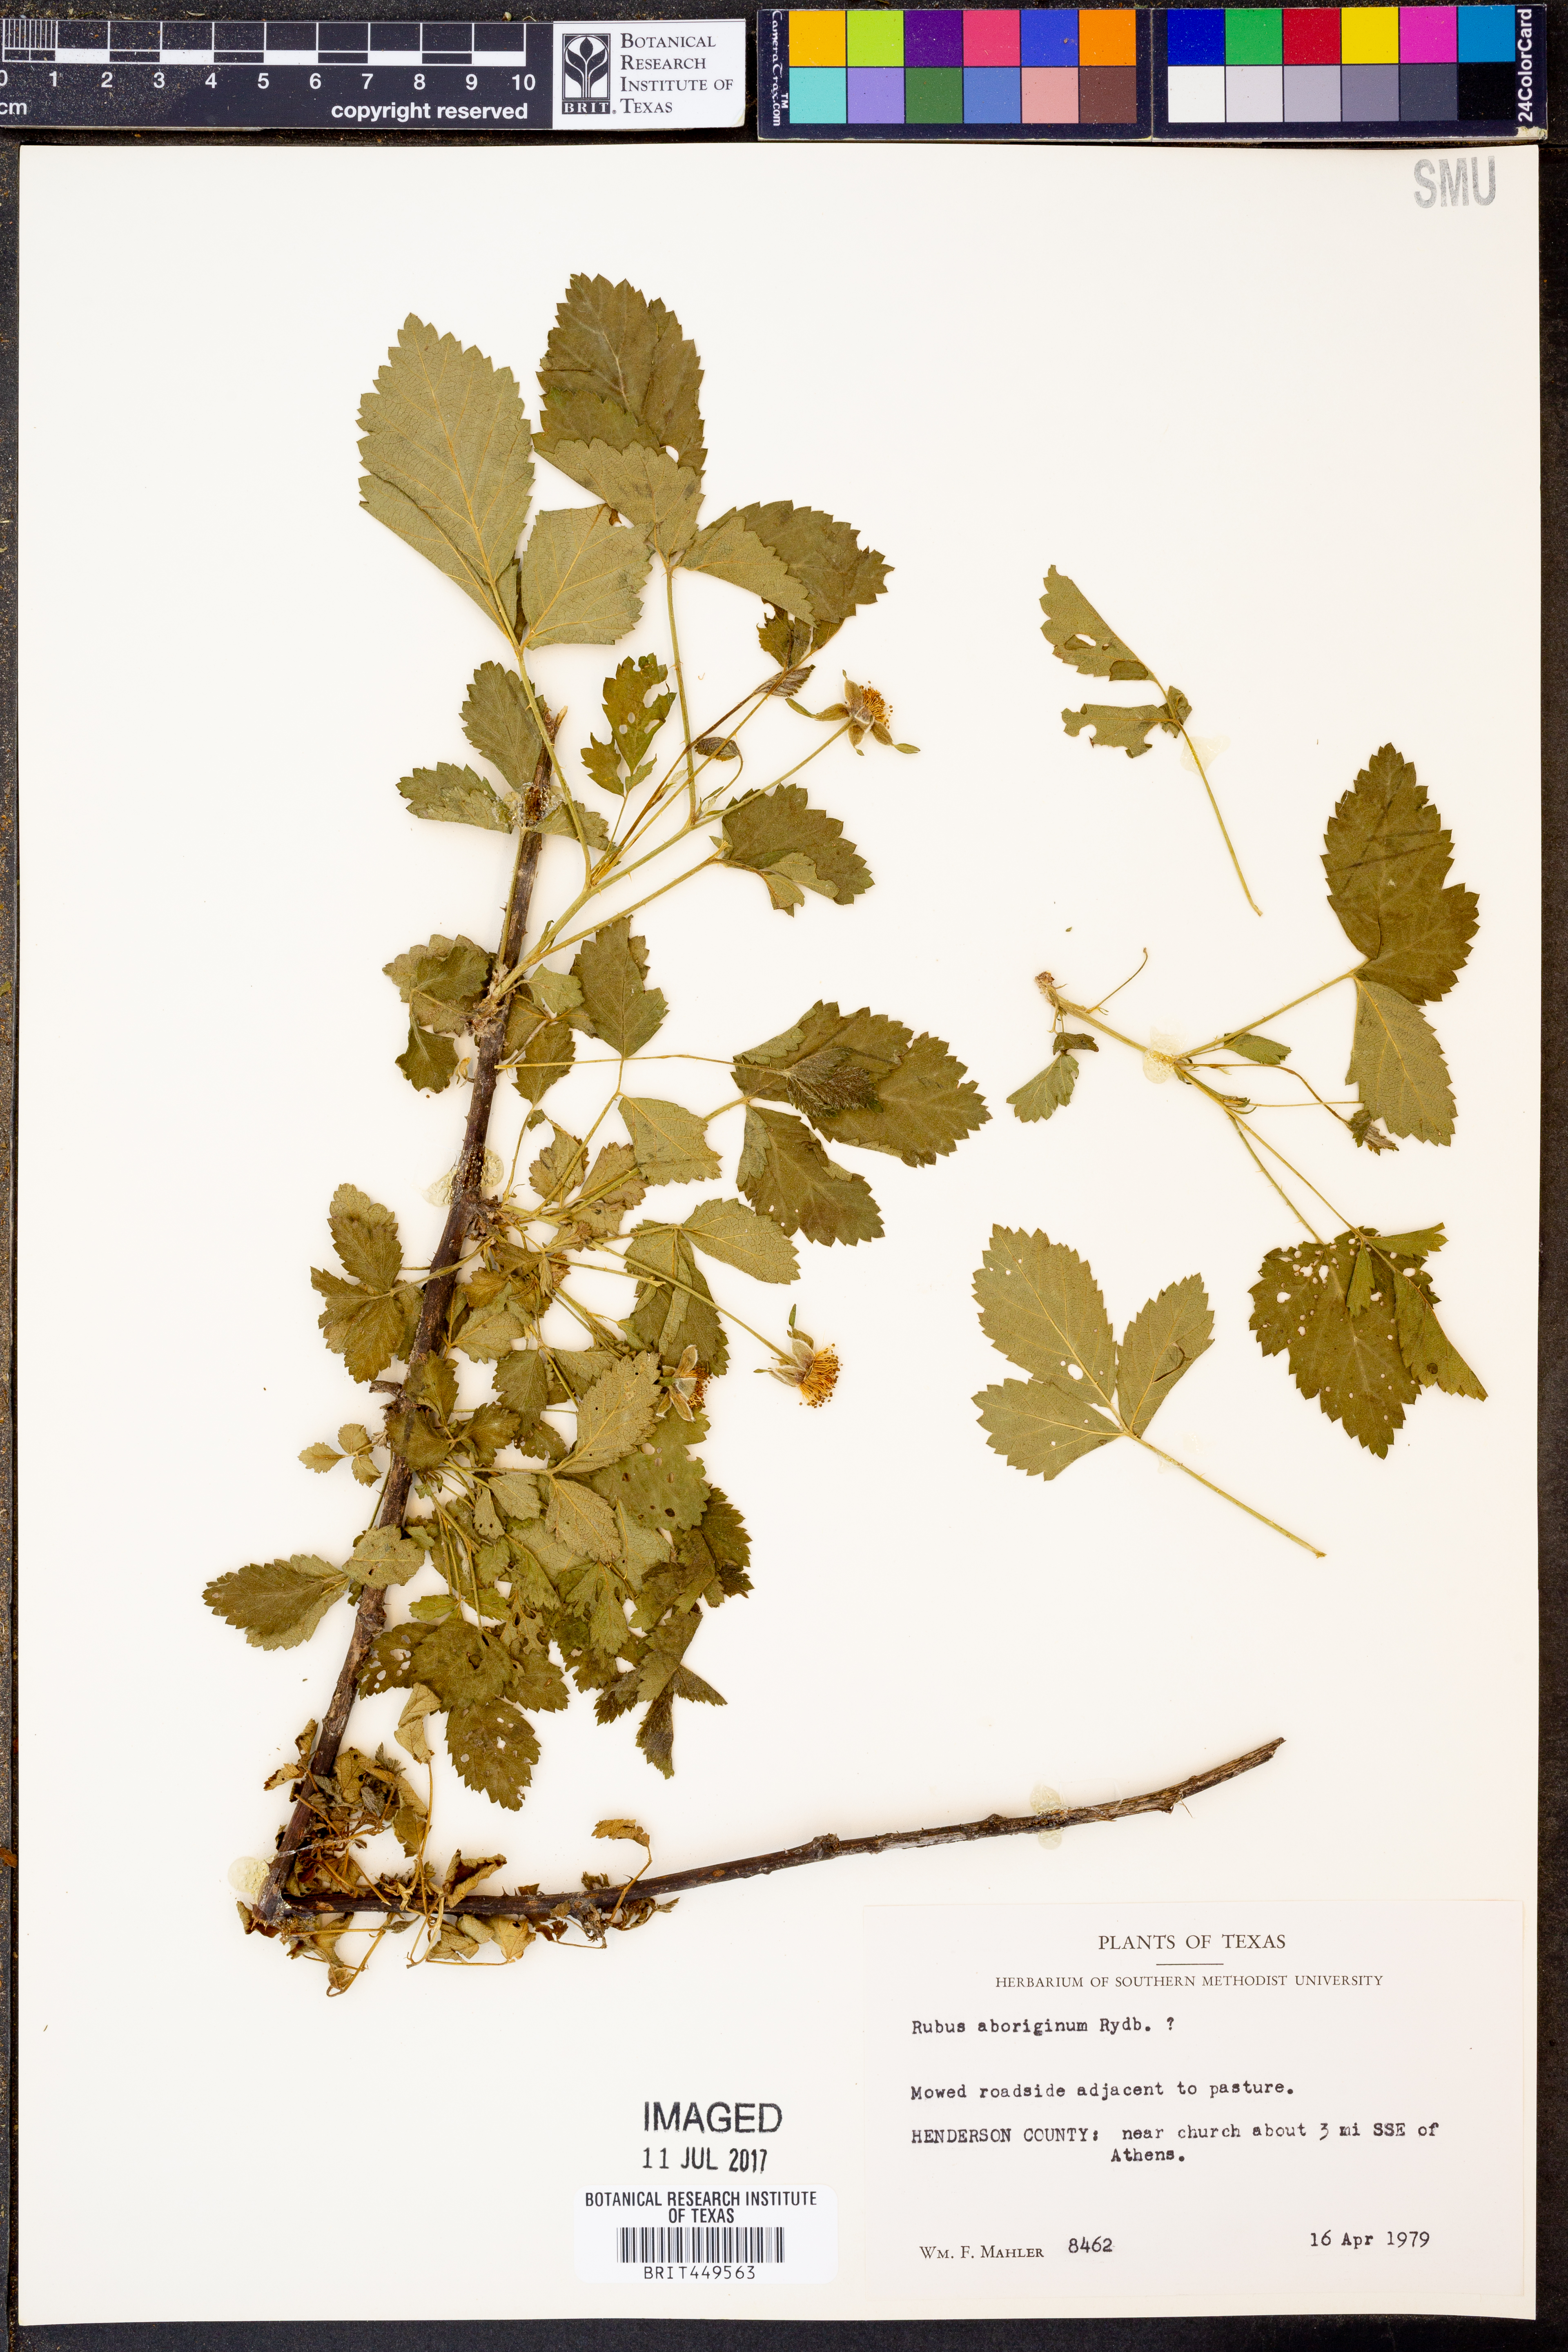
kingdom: Plantae
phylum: Tracheophyta
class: Magnoliopsida
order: Rosales
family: Rosaceae
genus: Rubus
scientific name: Rubus aboriginum
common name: Mayes dewberry
